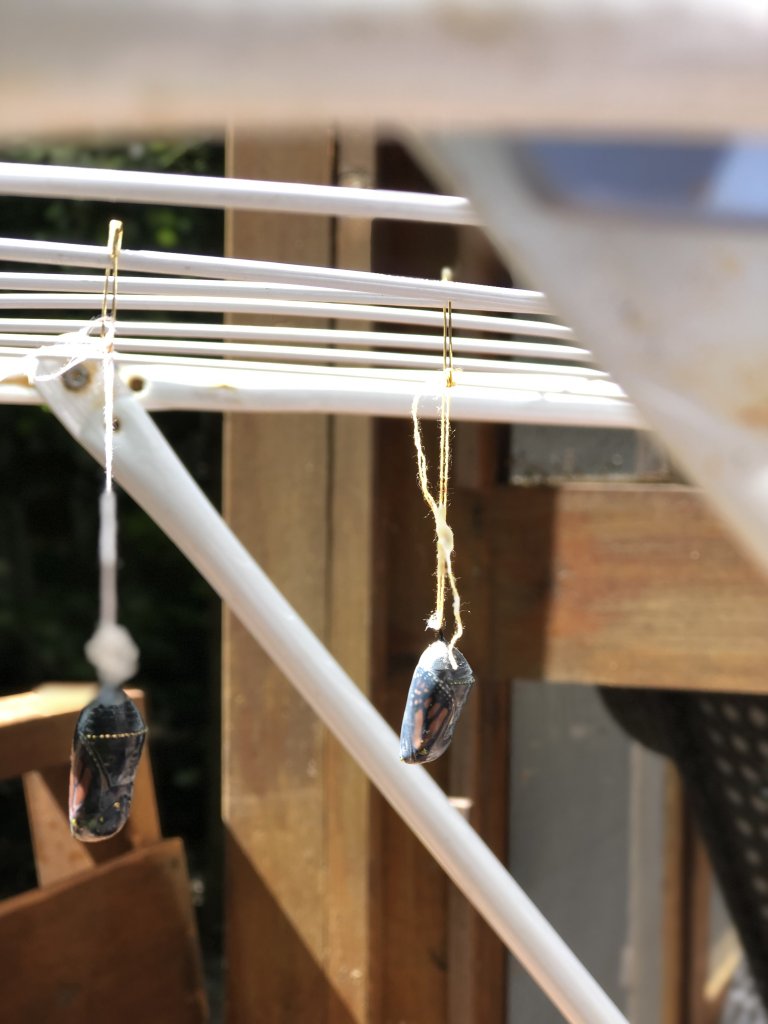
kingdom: Animalia
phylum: Arthropoda
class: Insecta
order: Lepidoptera
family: Nymphalidae
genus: Danaus
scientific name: Danaus plexippus
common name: Monarch
